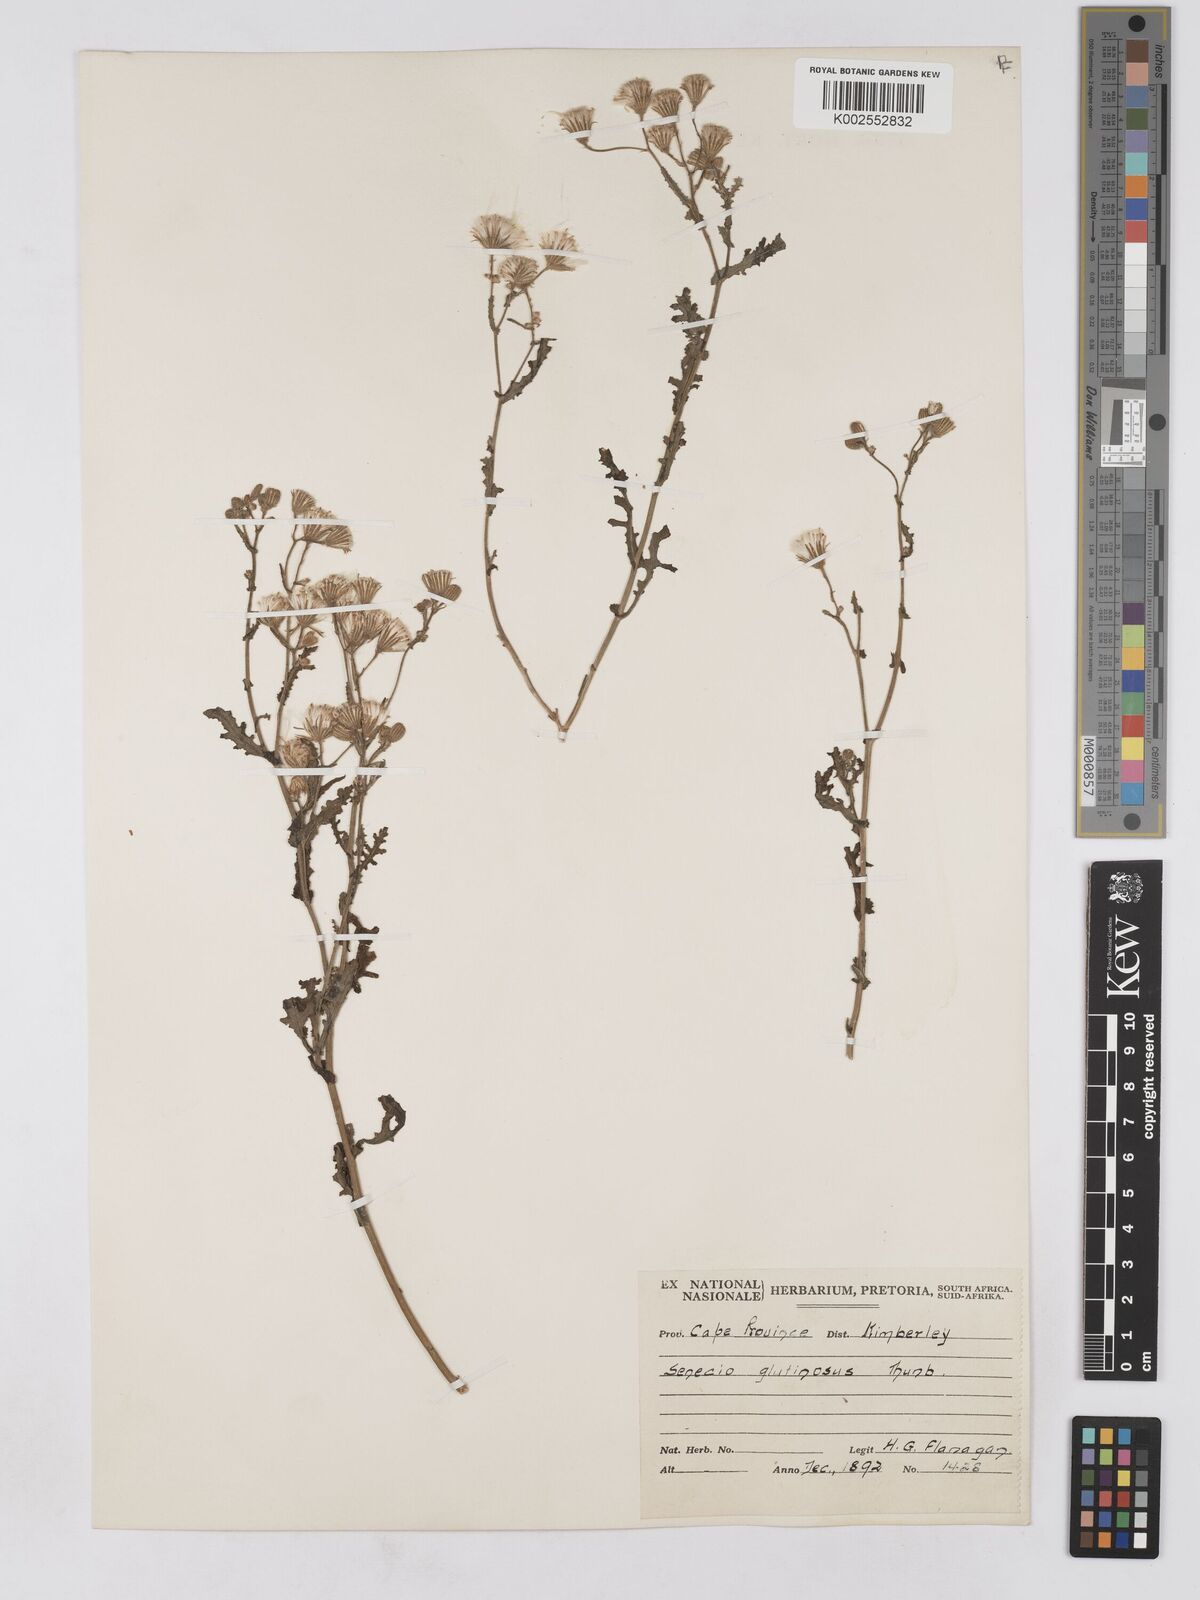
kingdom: Plantae
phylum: Tracheophyta
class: Magnoliopsida
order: Asterales
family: Asteraceae
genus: Senecio
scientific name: Senecio consanguineus
